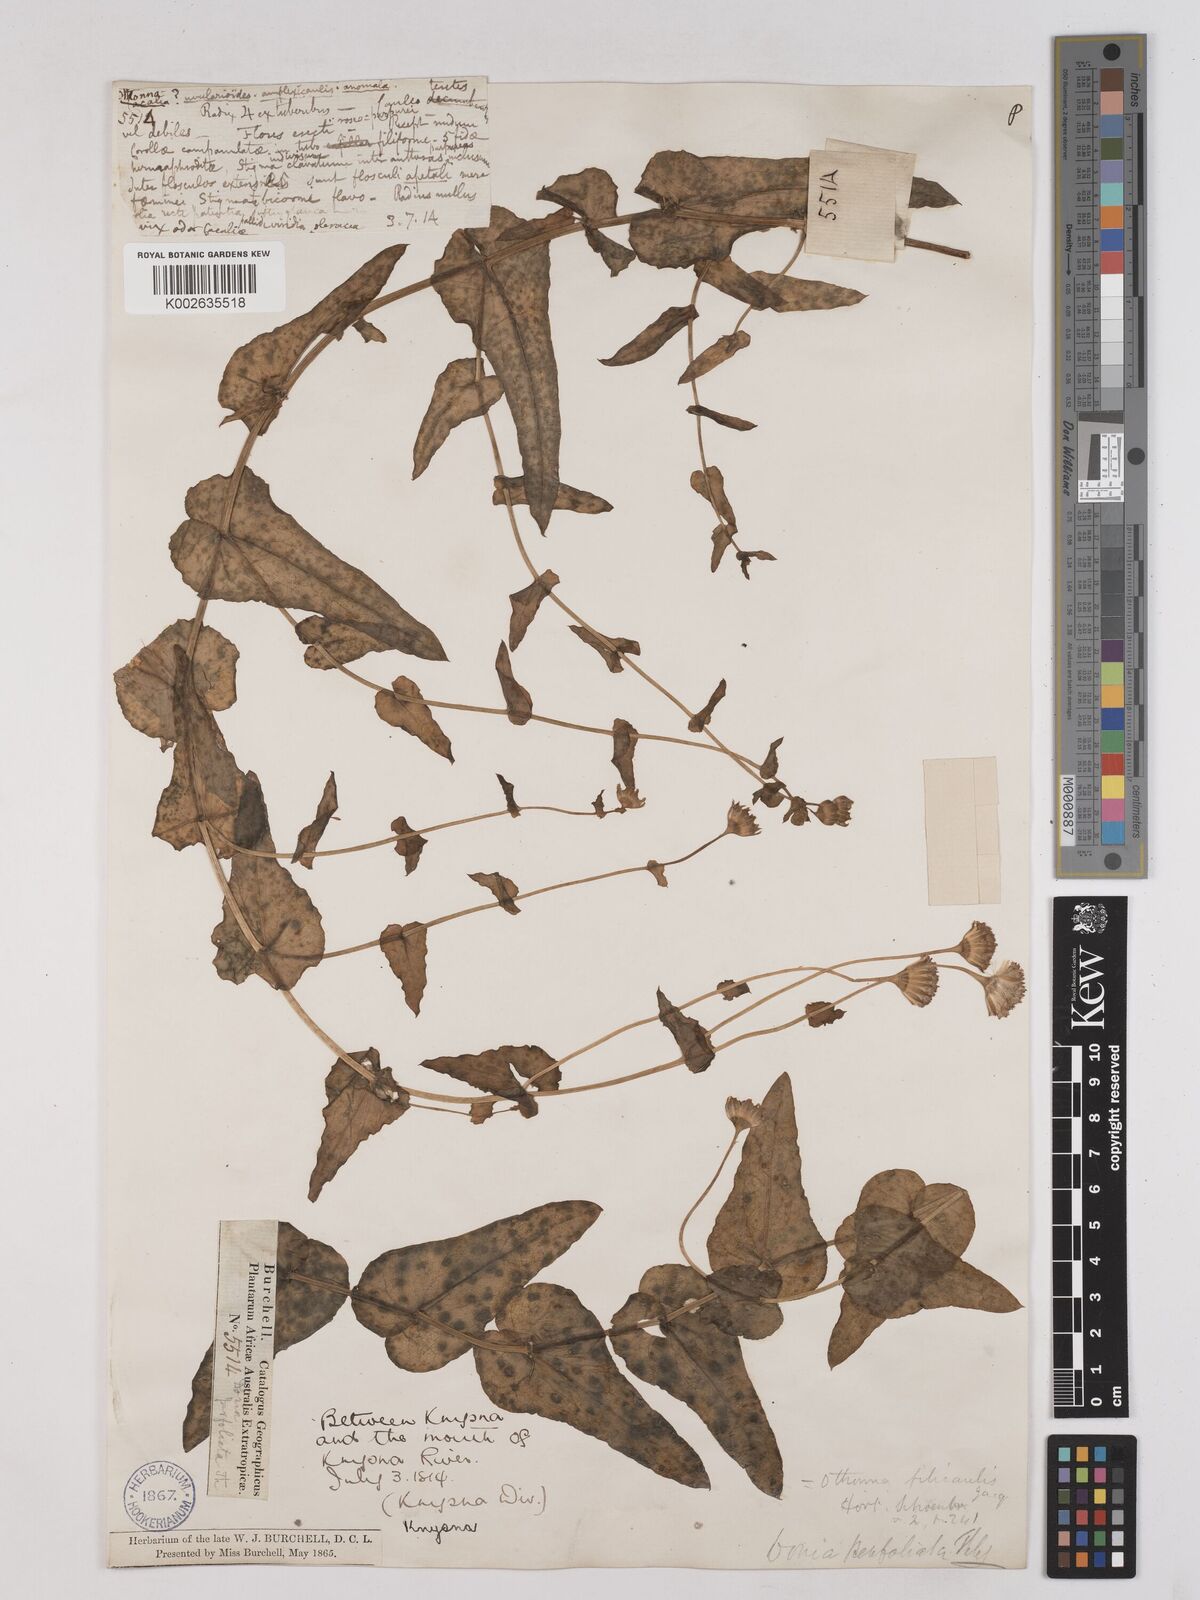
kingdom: Plantae
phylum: Tracheophyta
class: Magnoliopsida
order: Asterales
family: Asteraceae
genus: Othonna
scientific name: Othonna perfoliata
